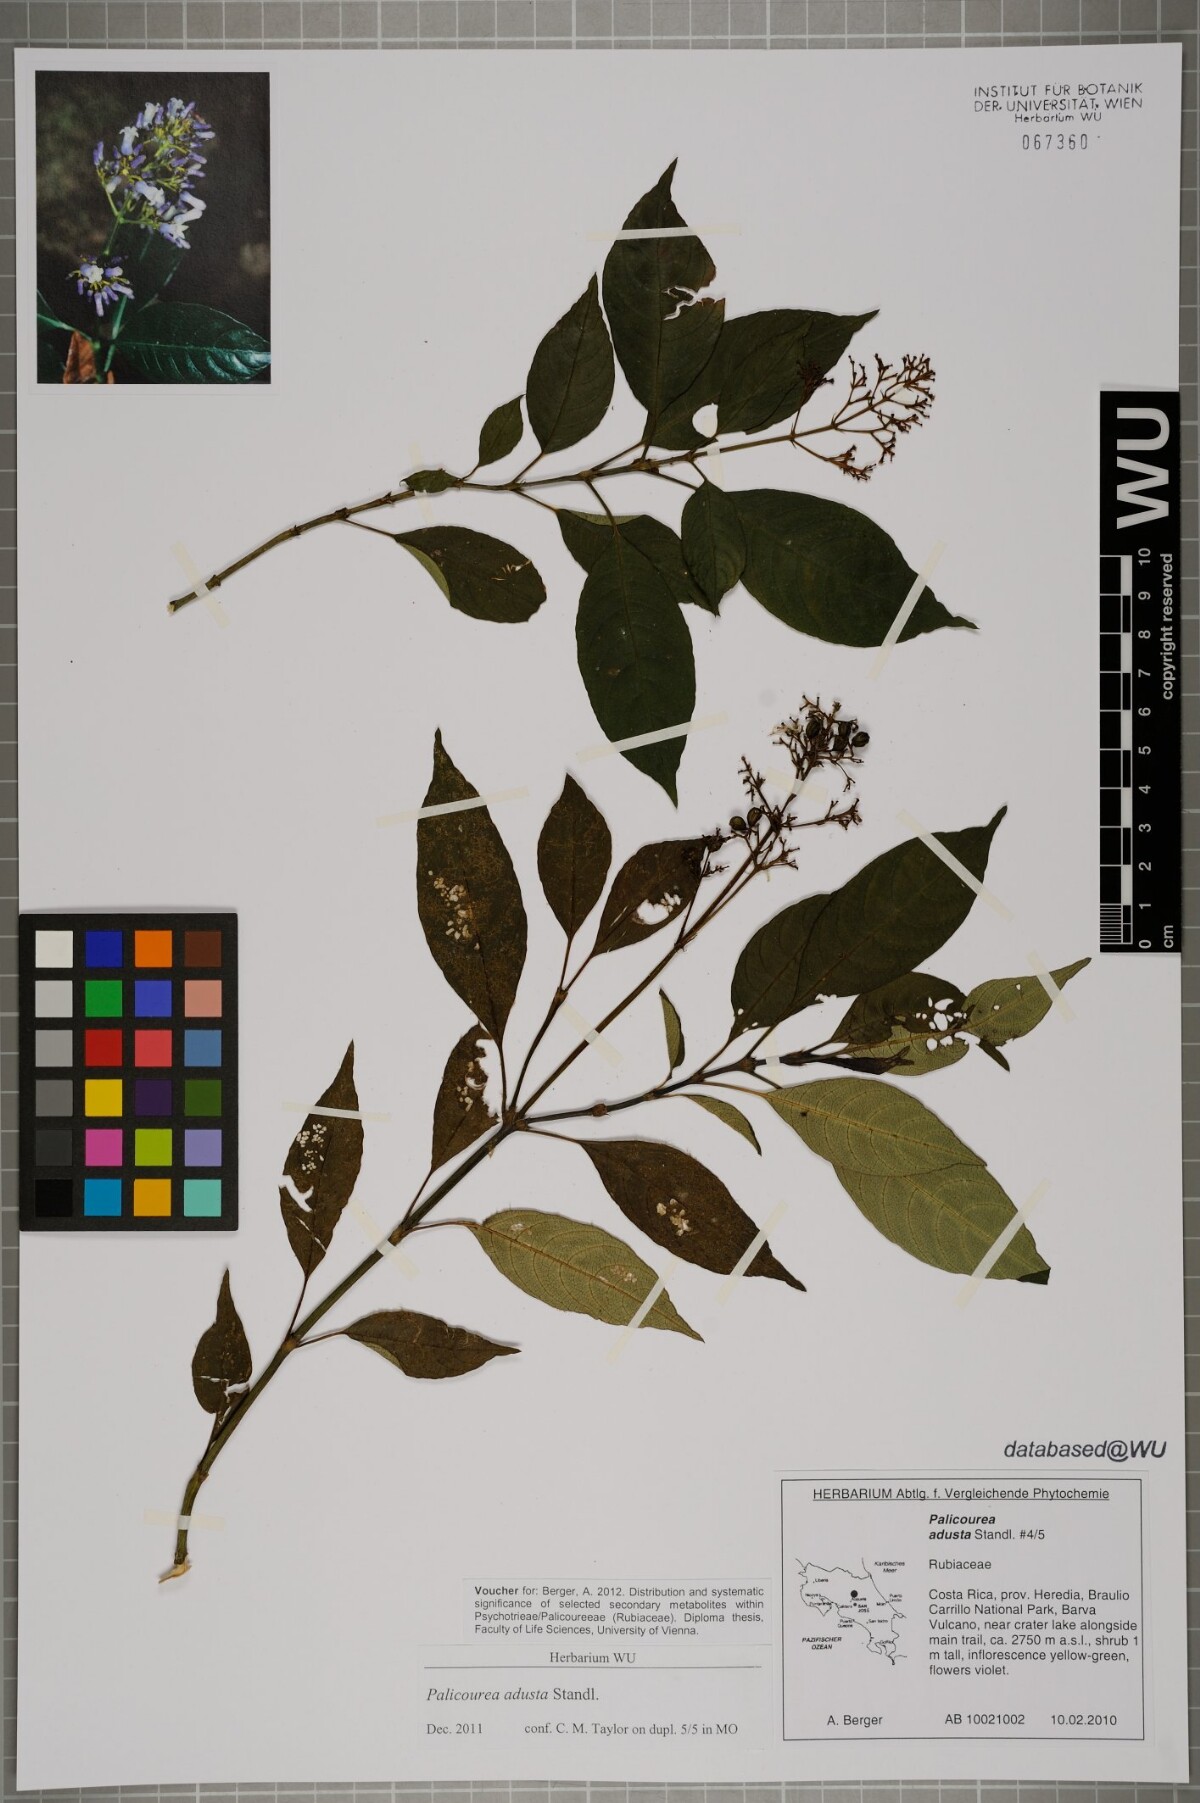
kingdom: Plantae
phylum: Tracheophyta
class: Magnoliopsida
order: Gentianales
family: Rubiaceae
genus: Palicourea
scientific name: Palicourea adusta
